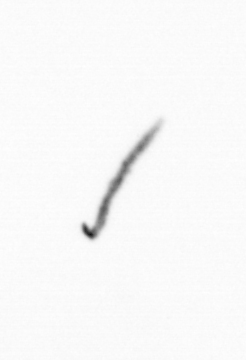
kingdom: Chromista
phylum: Ochrophyta
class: Bacillariophyceae
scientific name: Bacillariophyceae
